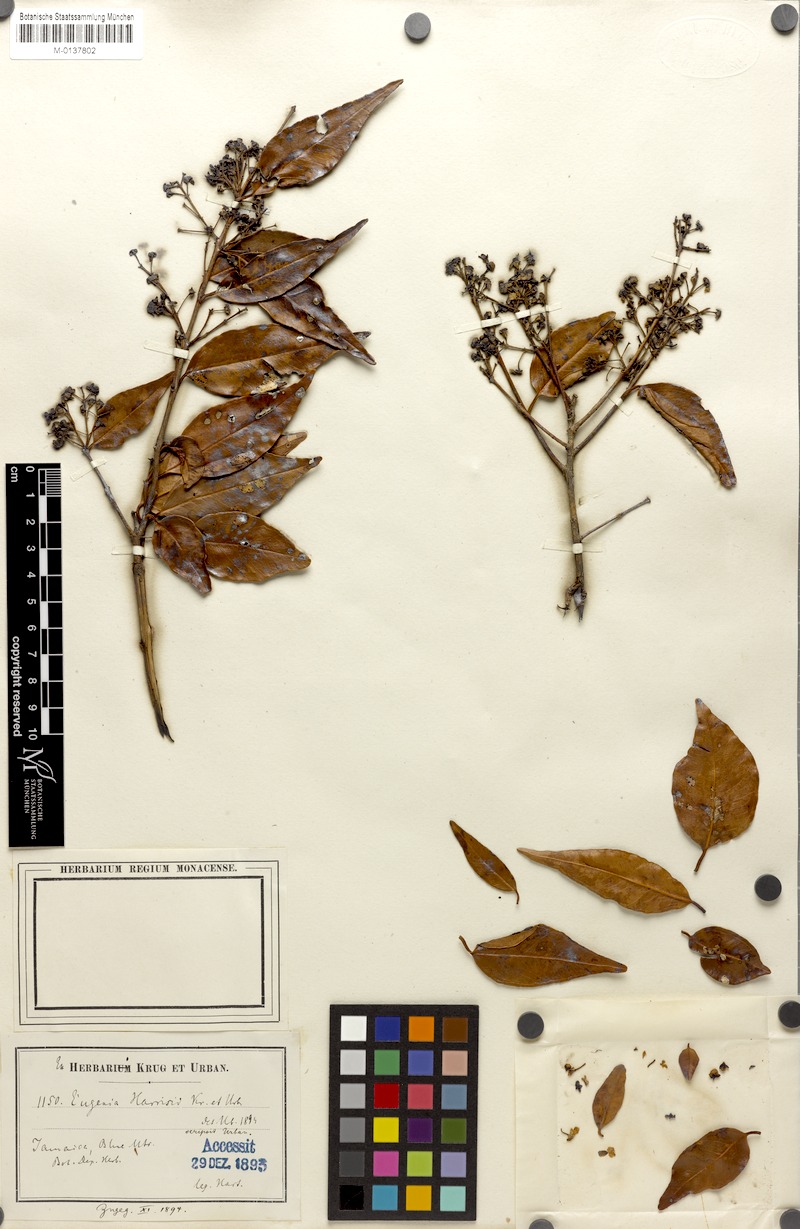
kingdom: Plantae
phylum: Tracheophyta
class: Magnoliopsida
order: Myrtales
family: Myrtaceae
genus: Eugenia
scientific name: Eugenia harrisii
